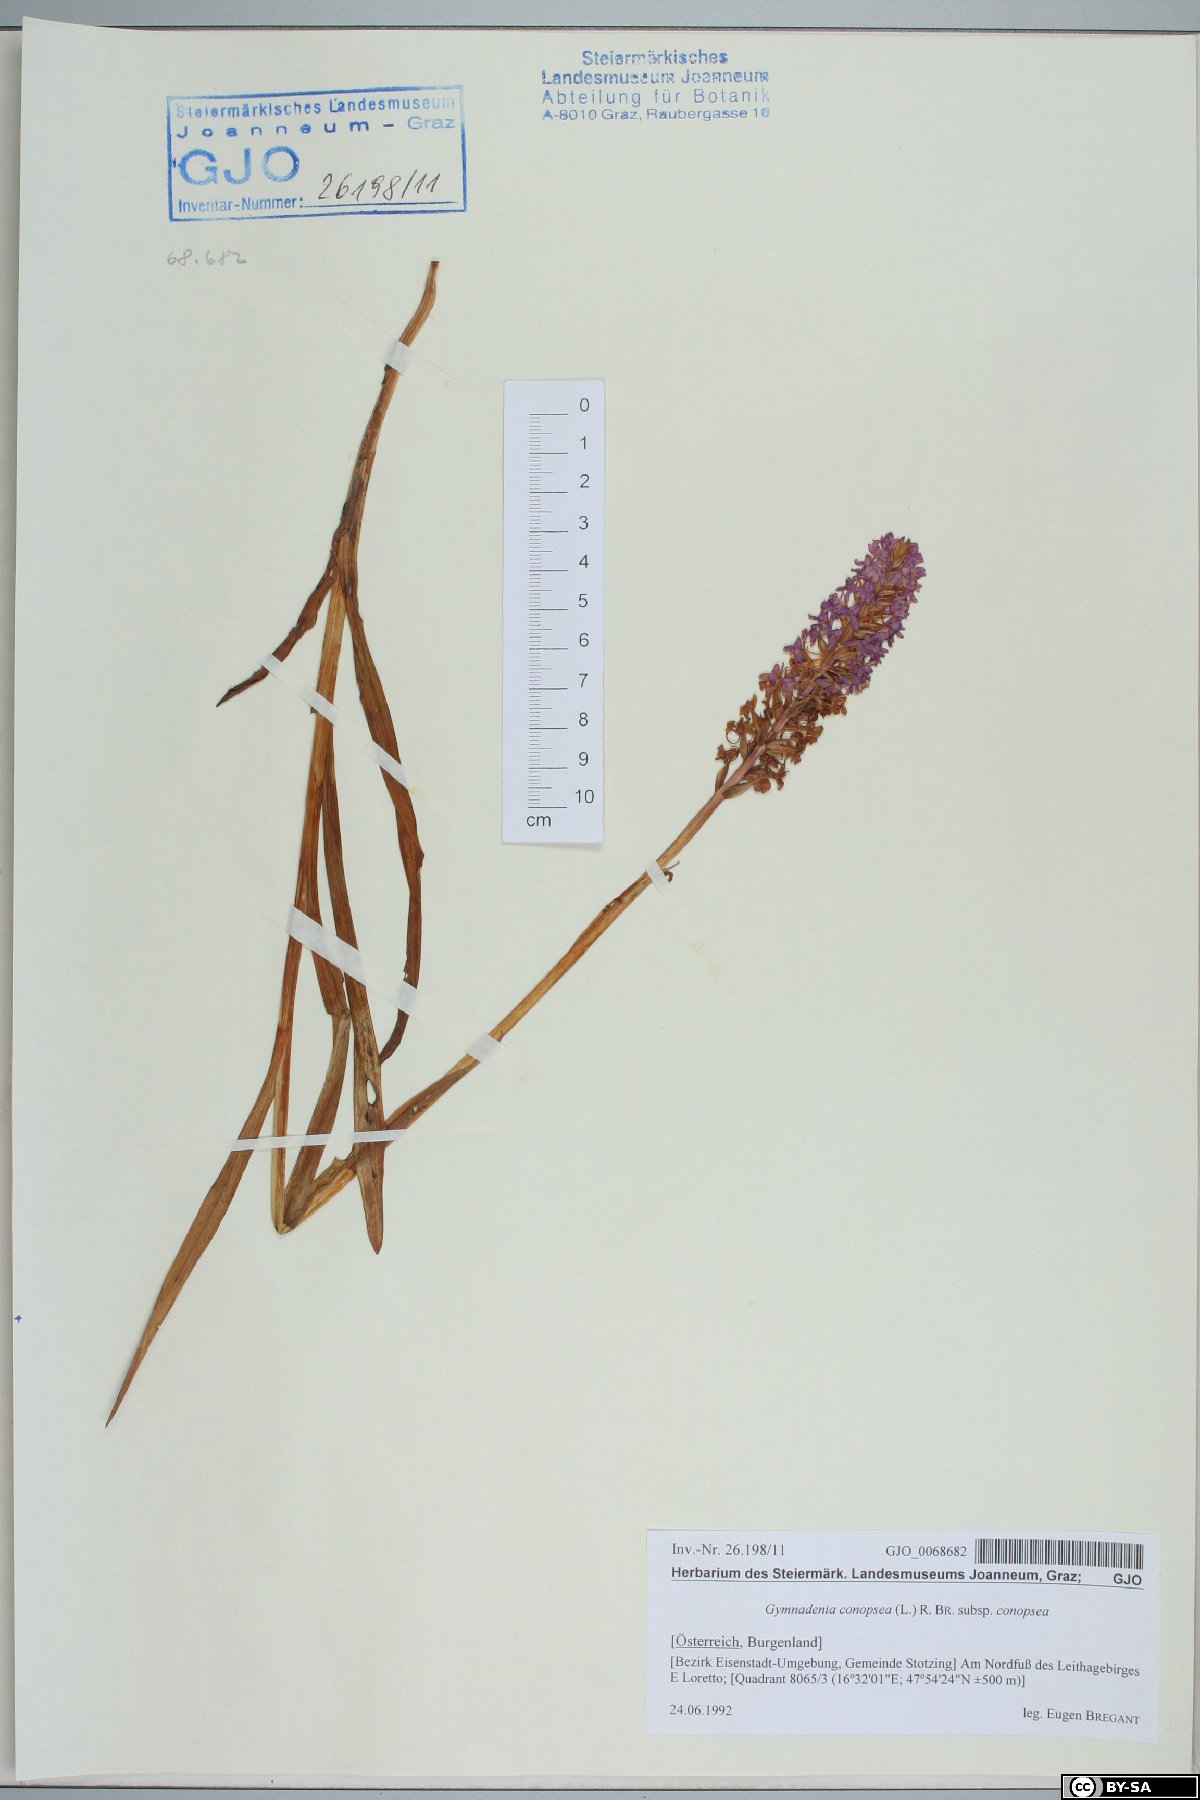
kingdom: Plantae
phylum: Tracheophyta
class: Liliopsida
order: Asparagales
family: Orchidaceae
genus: Gymnadenia
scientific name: Gymnadenia conopsea
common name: Fragrant orchid
